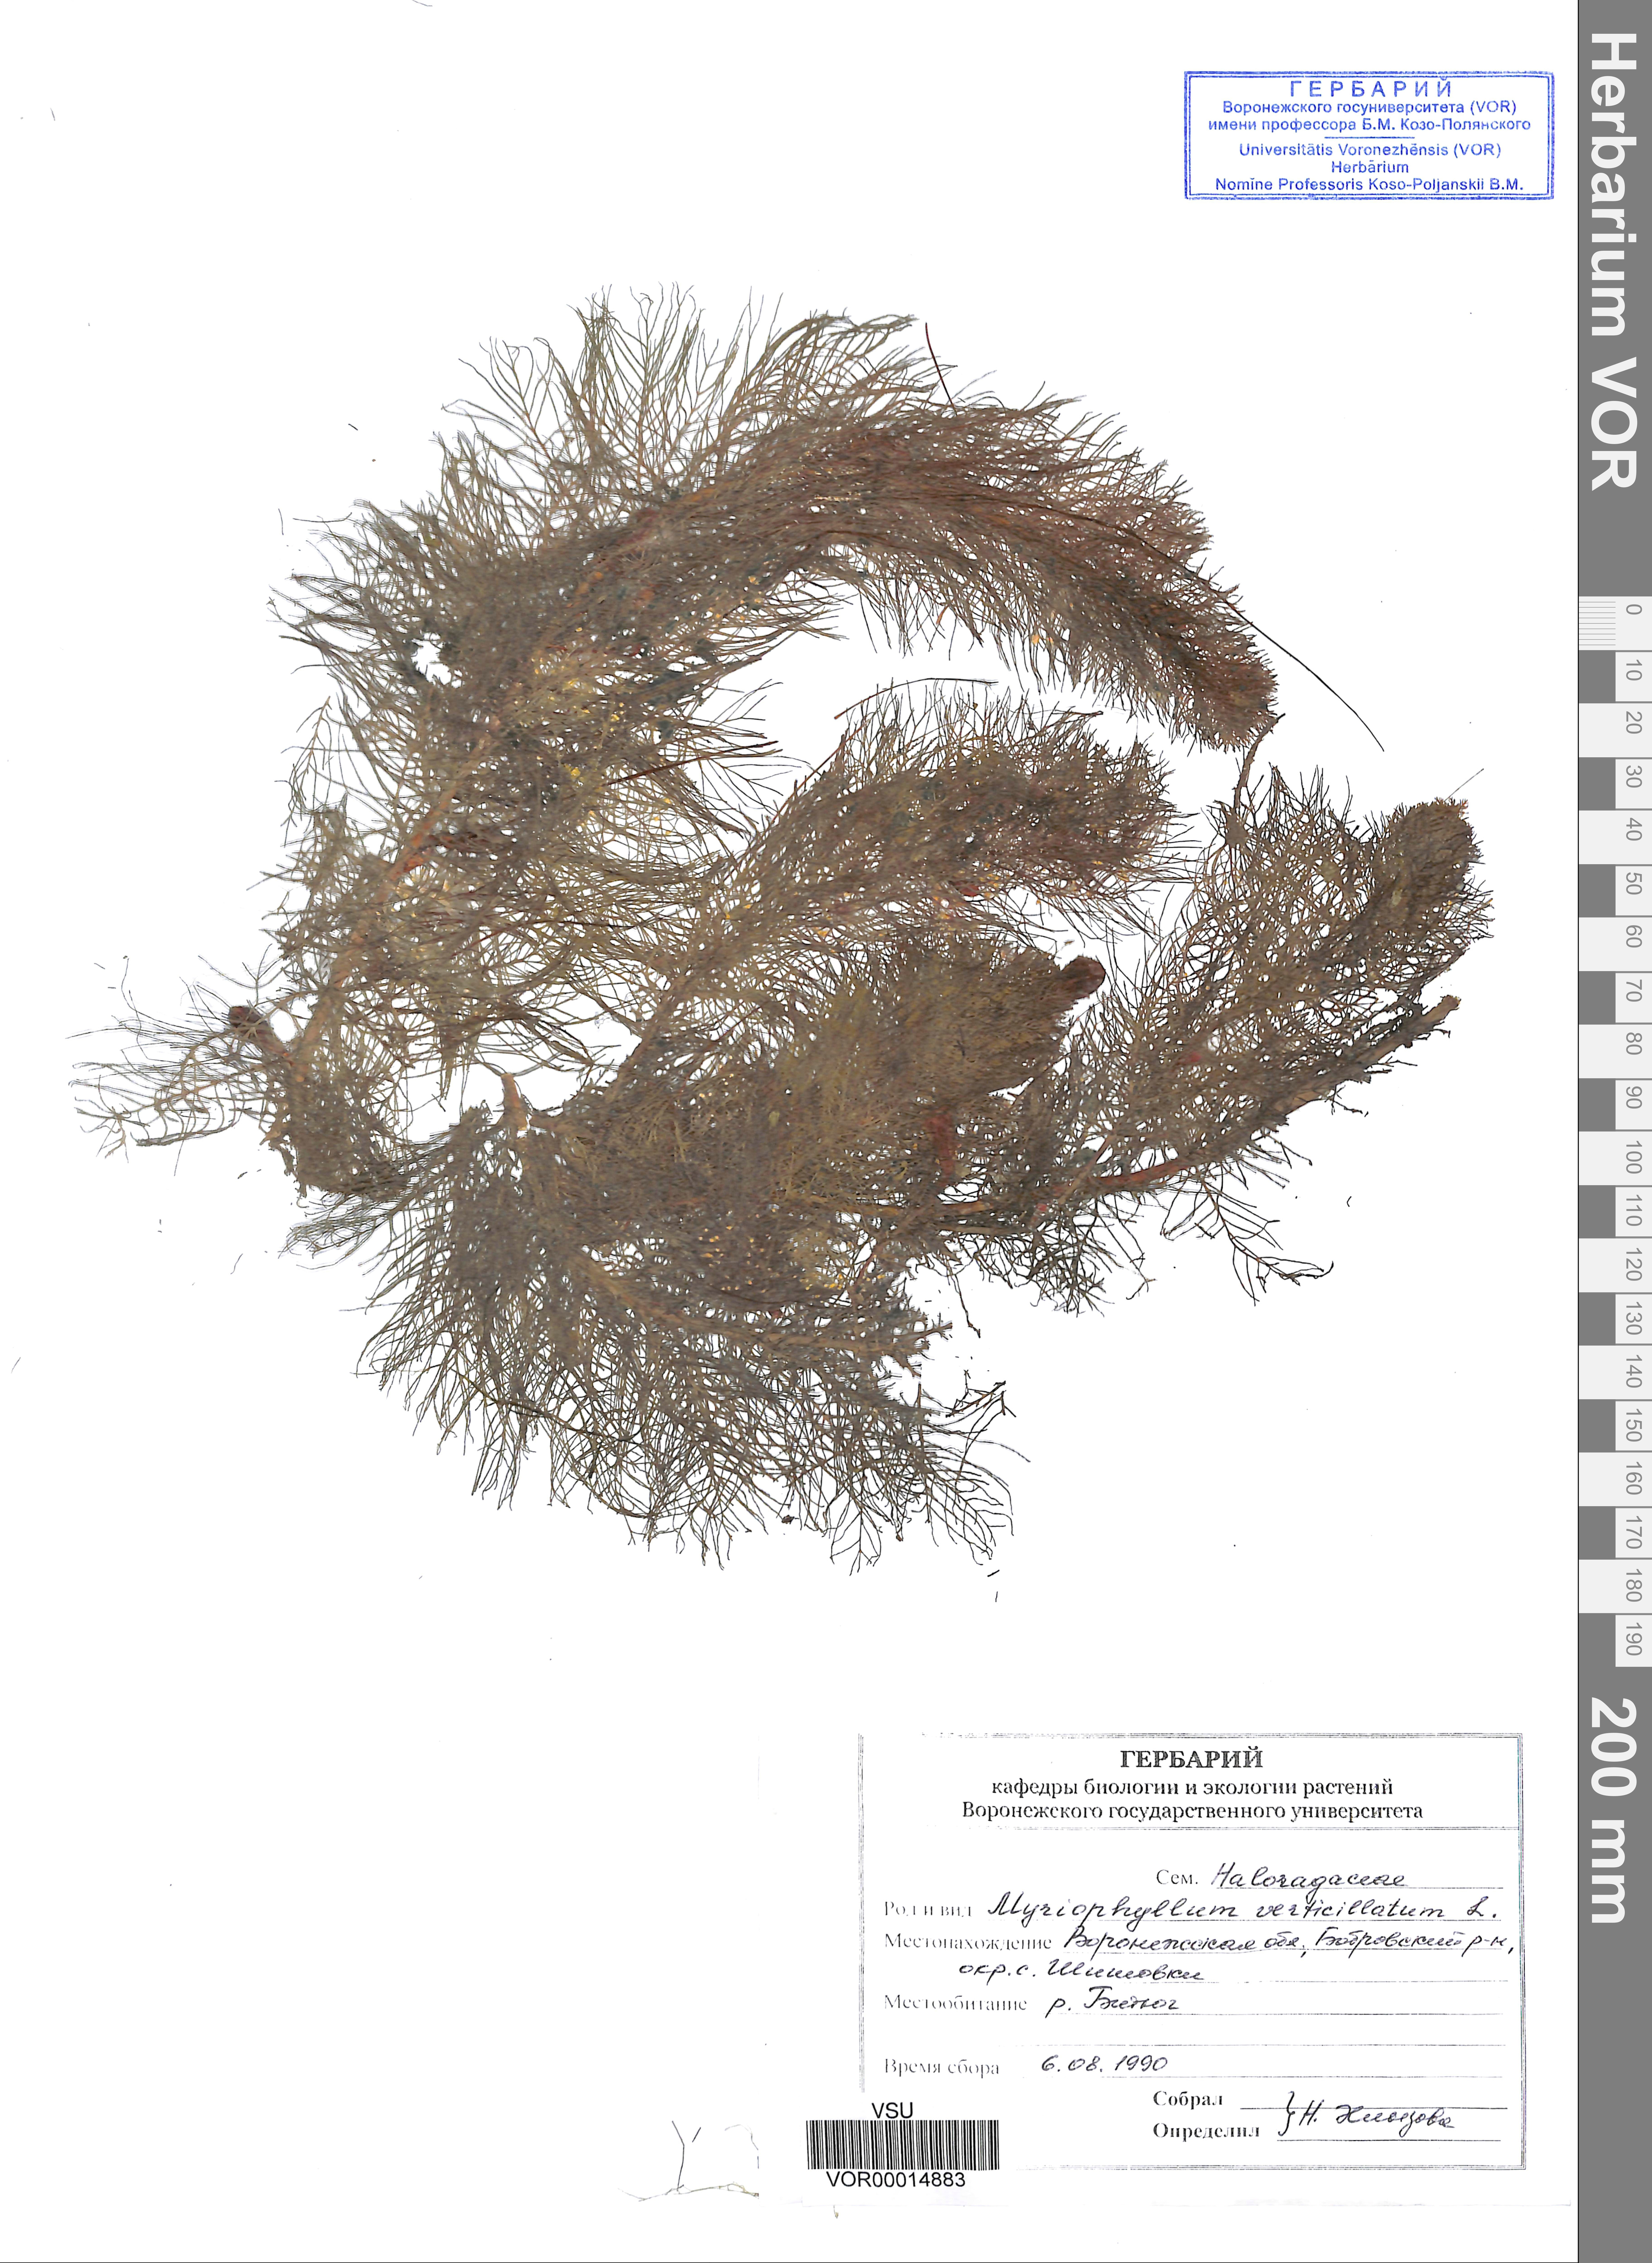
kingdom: Plantae
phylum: Tracheophyta
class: Magnoliopsida
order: Saxifragales
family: Haloragaceae
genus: Myriophyllum
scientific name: Myriophyllum verticillatum
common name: Whorled water-milfoil
